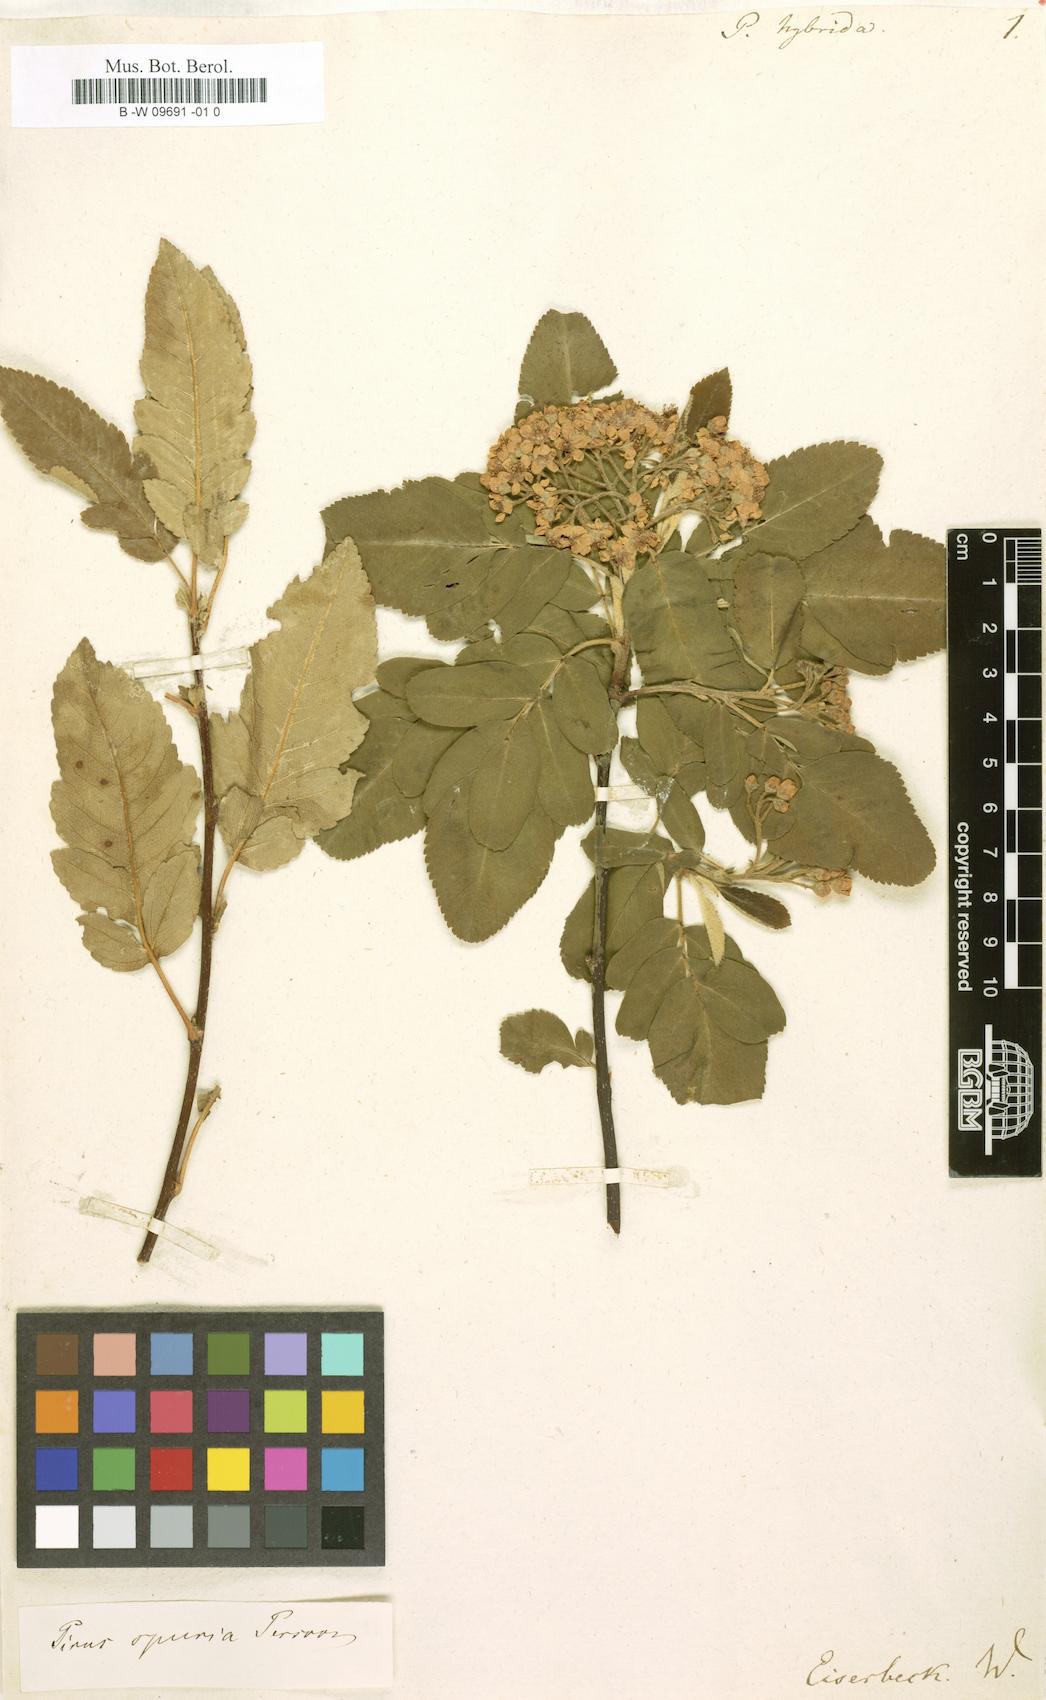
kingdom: Plantae
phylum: Tracheophyta
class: Magnoliopsida
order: Rosales
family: Rosaceae
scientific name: Rosaceae
